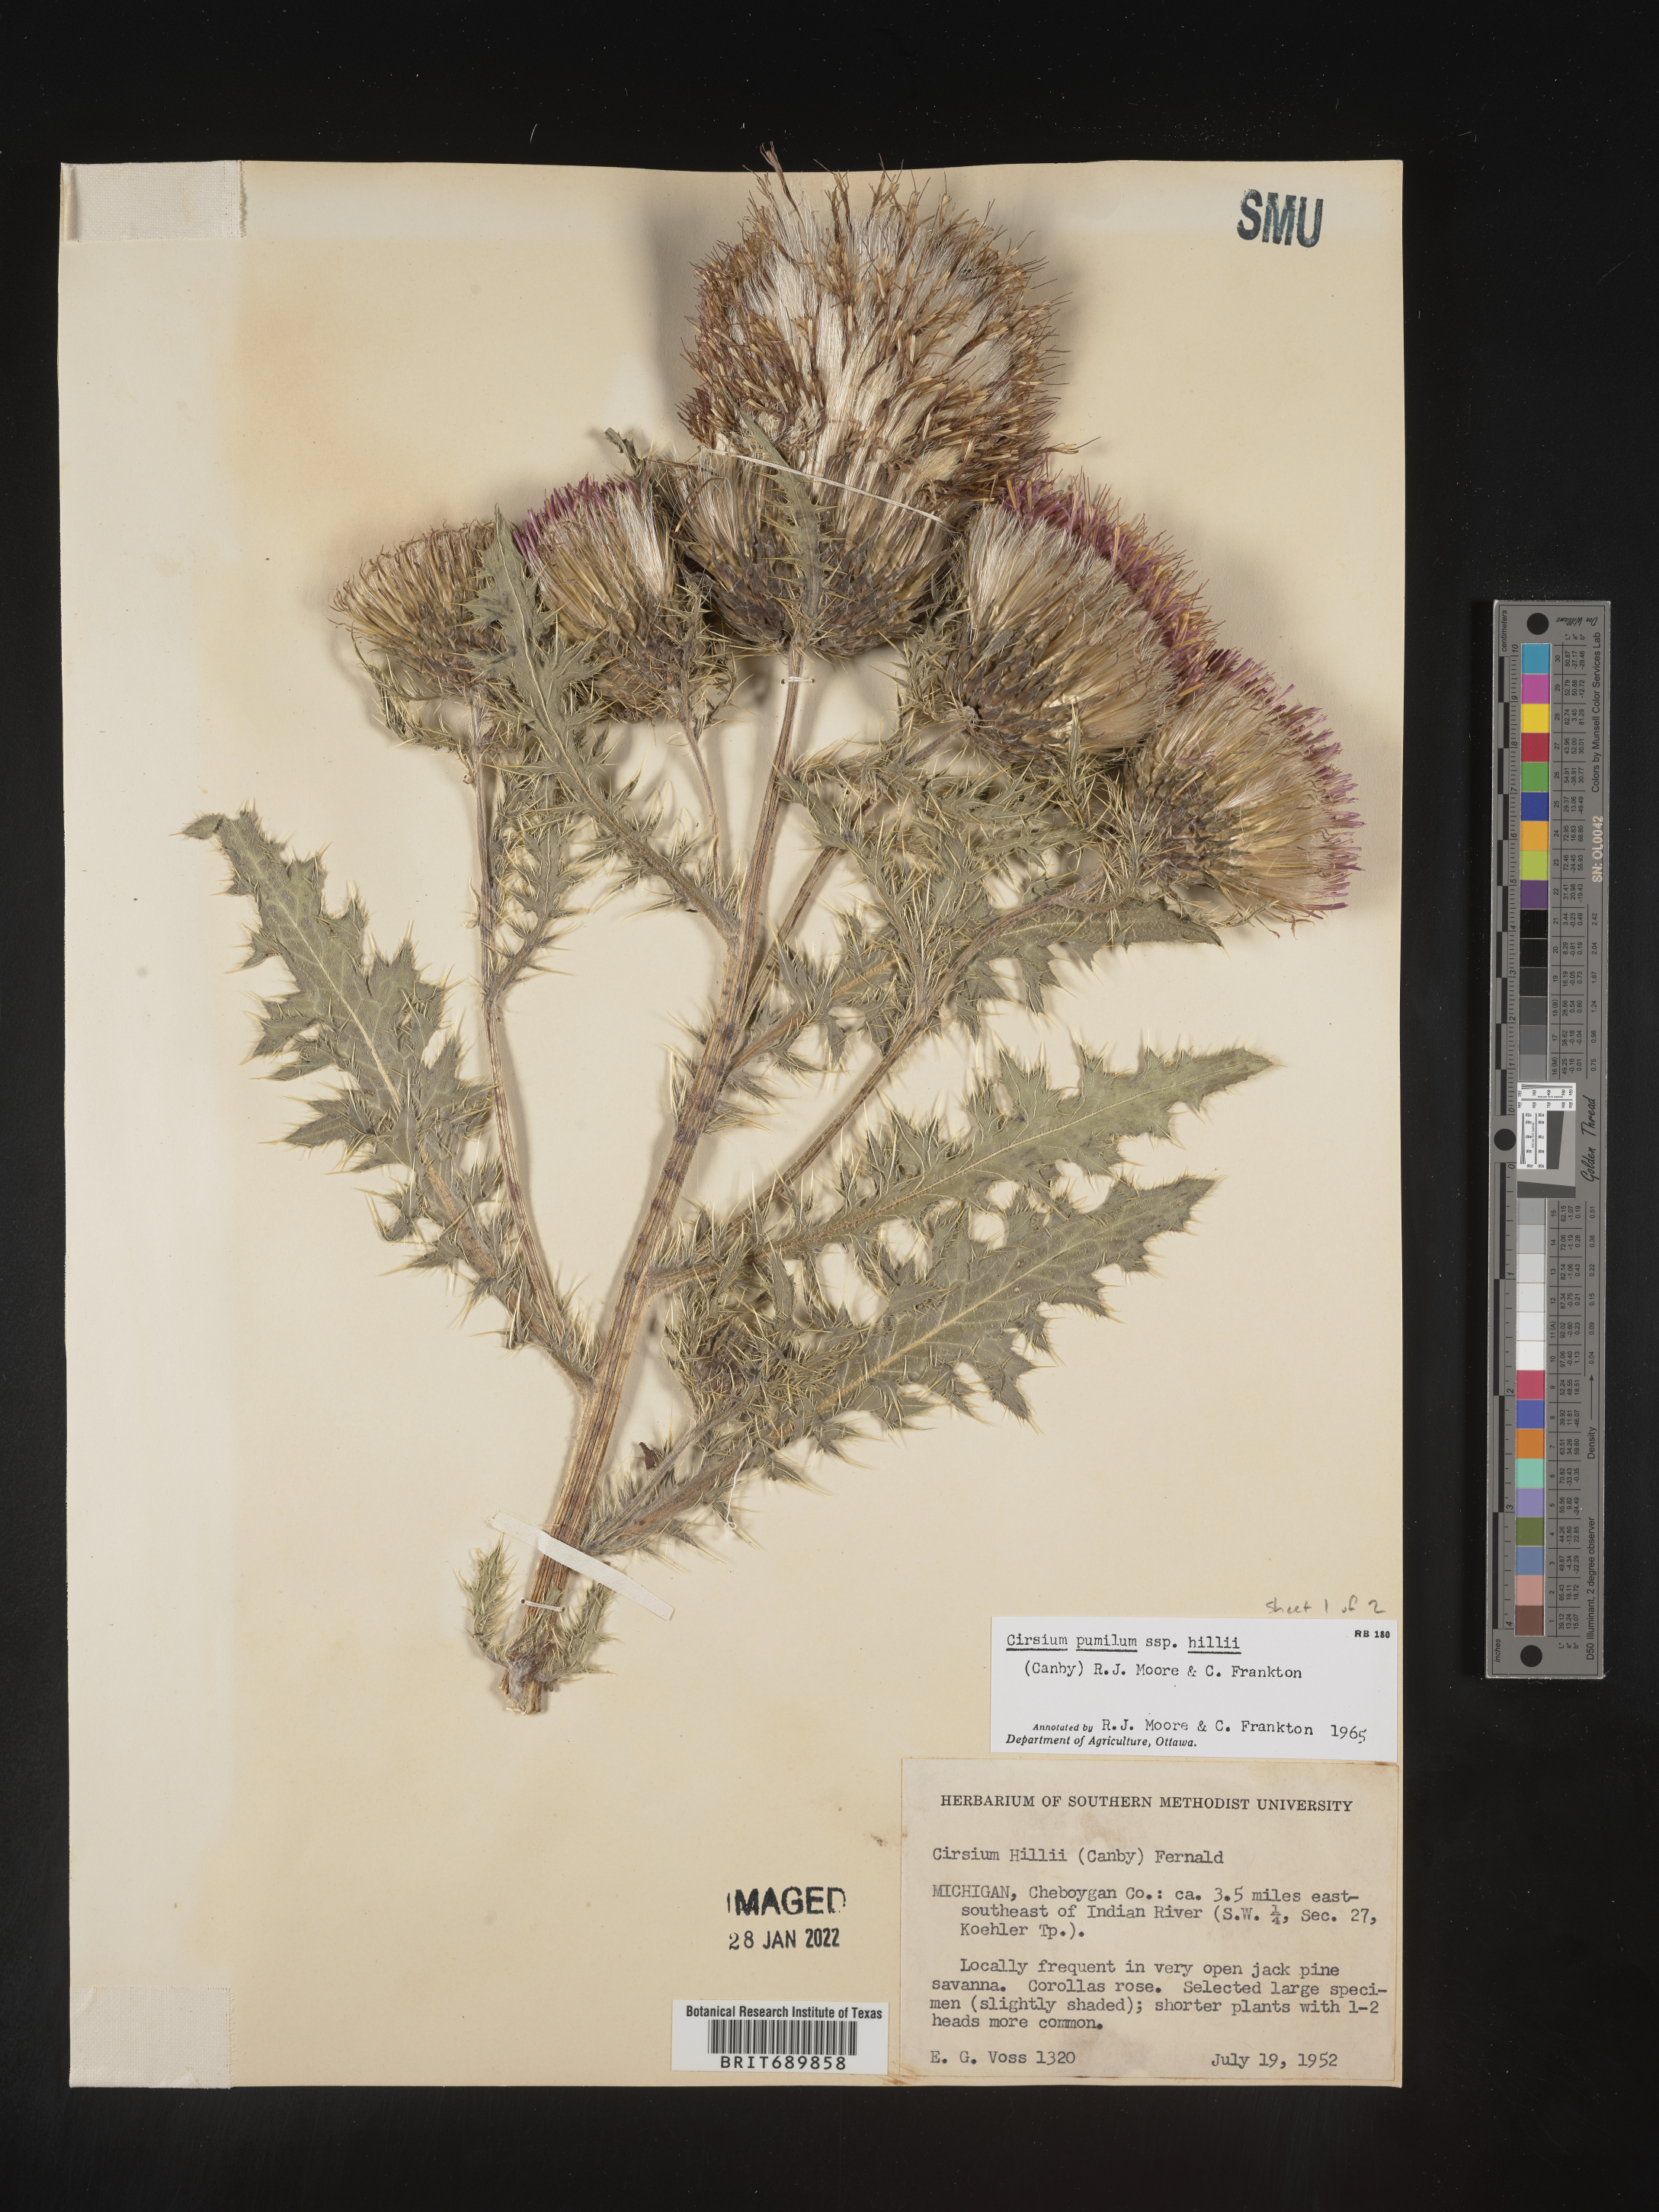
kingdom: Plantae
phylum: Tracheophyta
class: Magnoliopsida
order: Asterales
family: Asteraceae
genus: Cirsium
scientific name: Cirsium pumilum
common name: Pasture thistle
